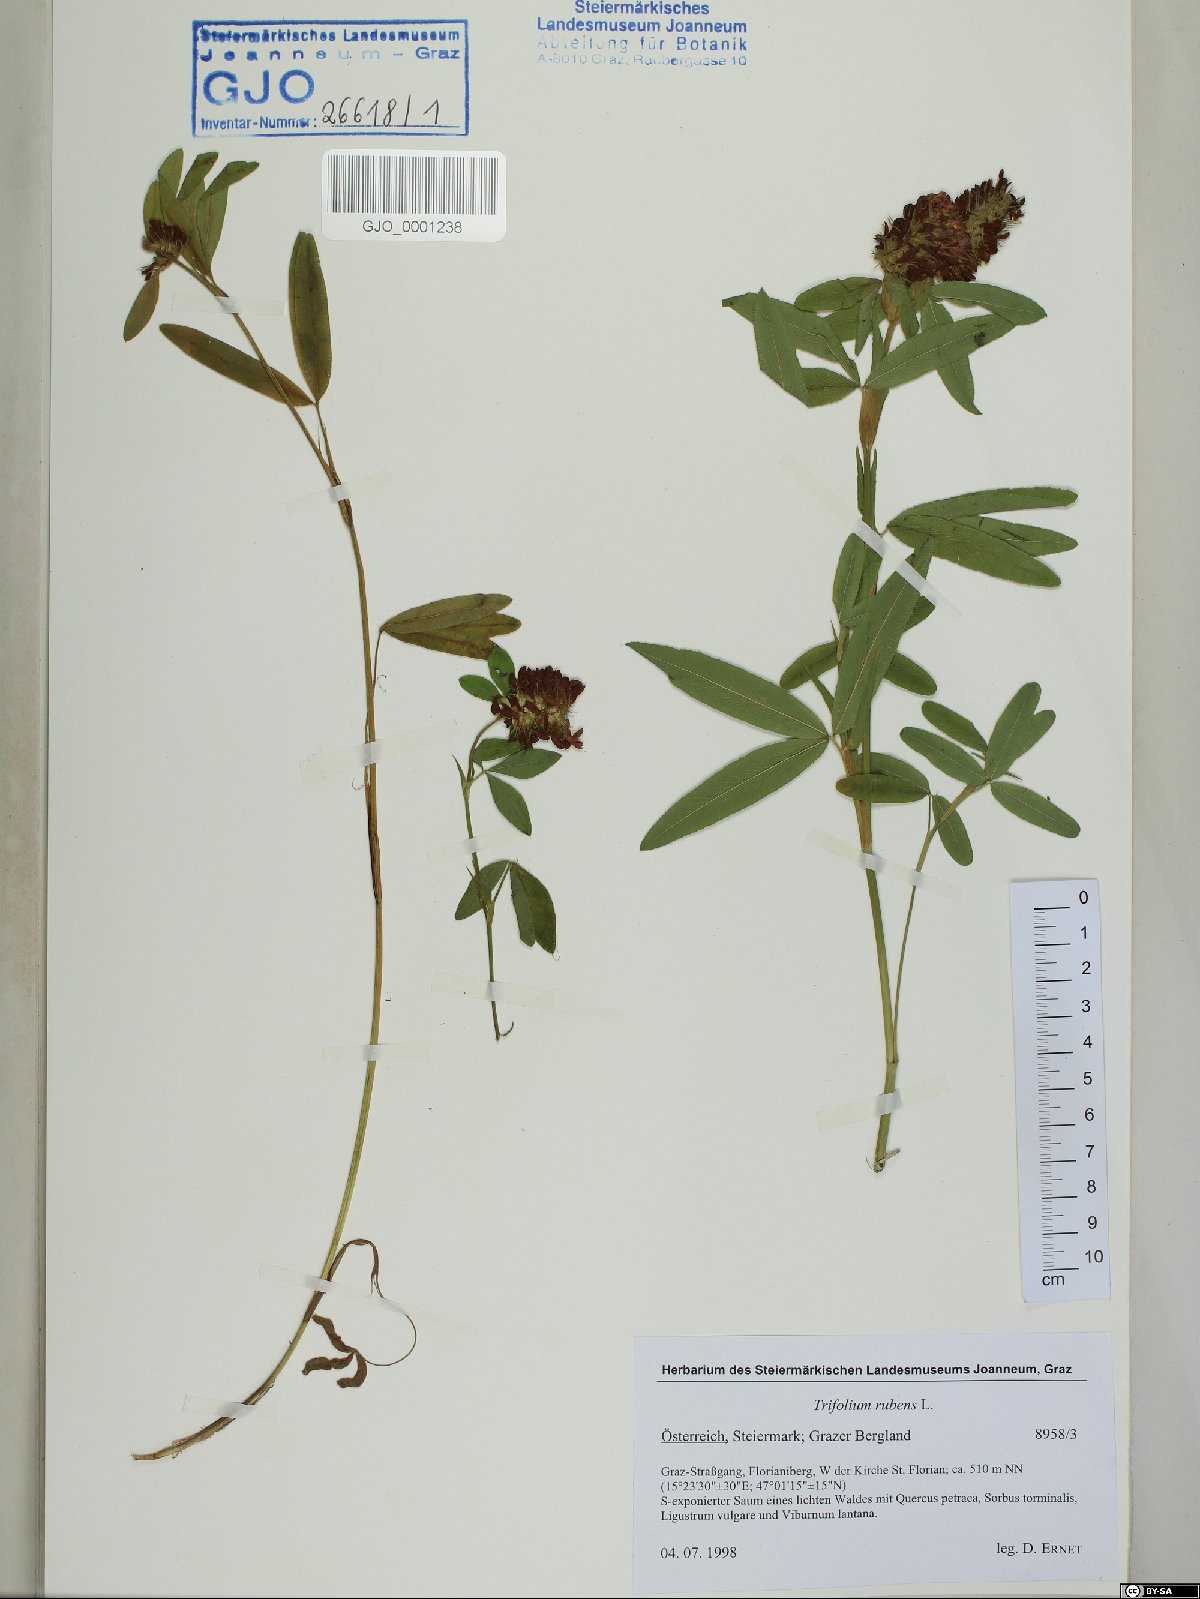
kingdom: Plantae
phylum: Tracheophyta
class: Magnoliopsida
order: Fabales
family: Fabaceae
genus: Trifolium
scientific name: Trifolium rubens
